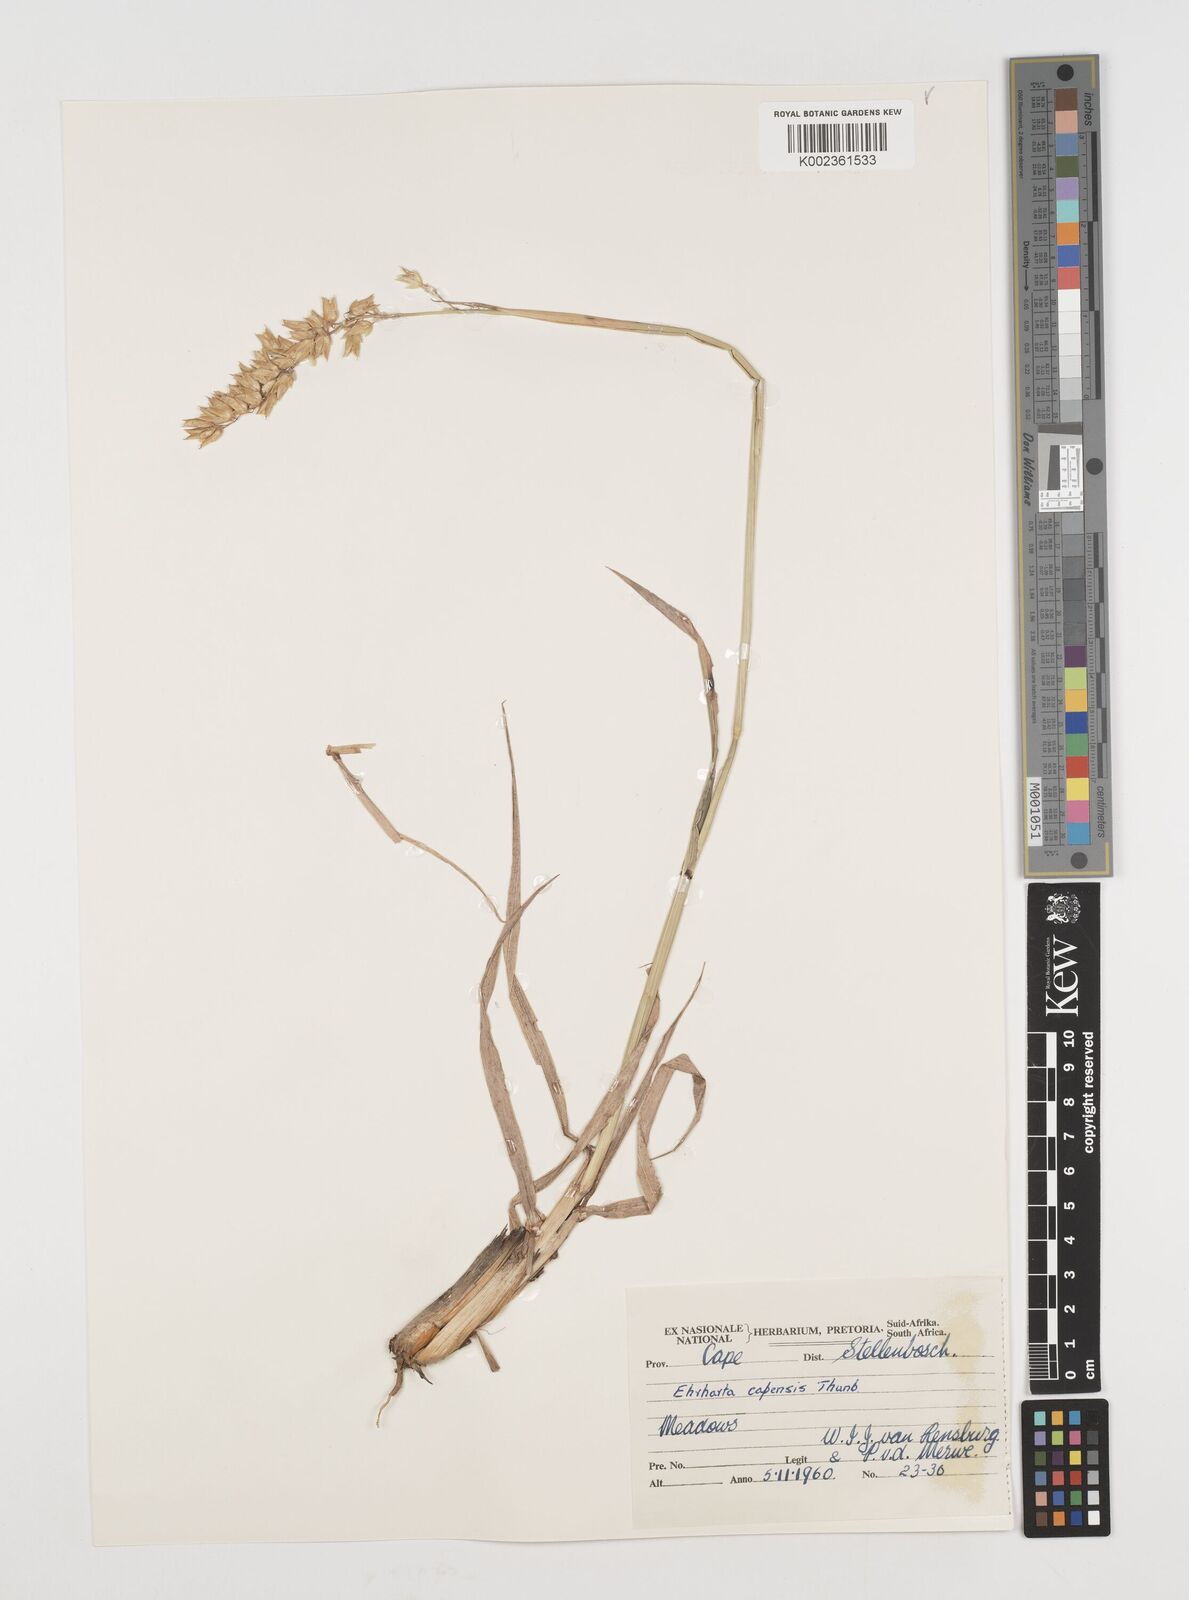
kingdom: Plantae
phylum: Tracheophyta
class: Liliopsida
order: Poales
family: Poaceae
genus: Ehrharta
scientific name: Ehrharta capensis
